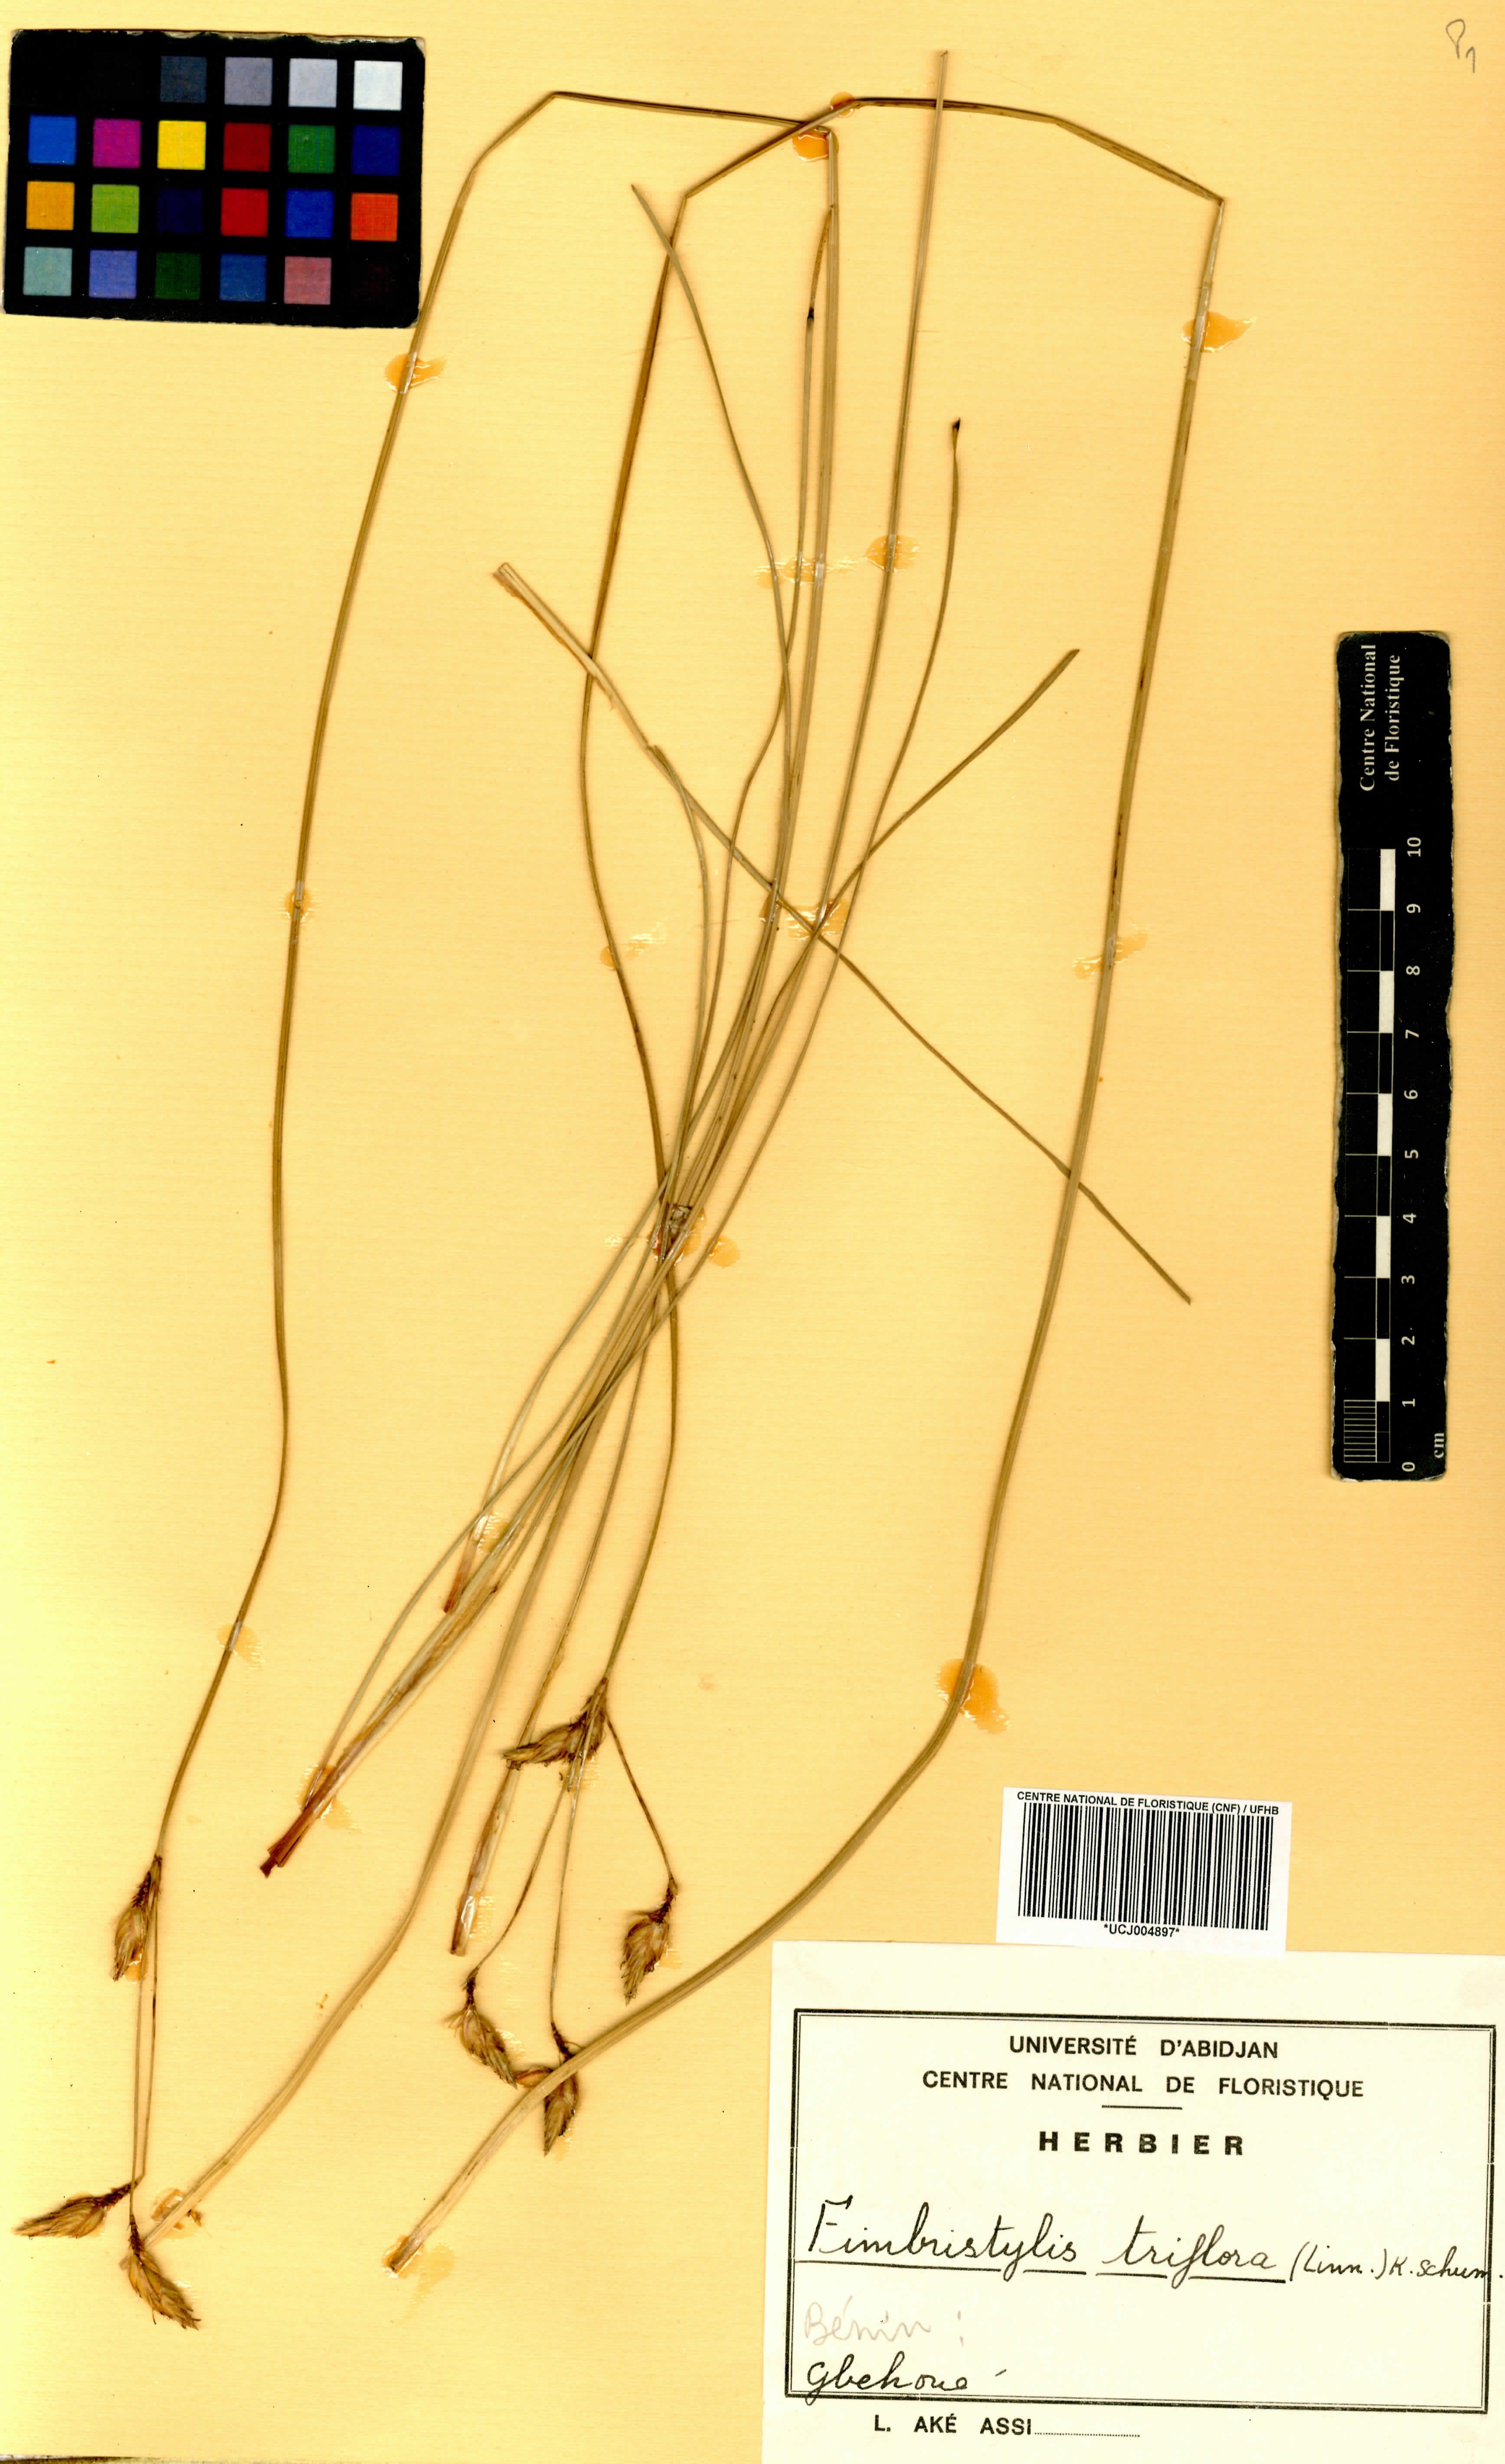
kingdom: Plantae
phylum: Tracheophyta
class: Liliopsida
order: Poales
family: Cyperaceae
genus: Abildgaardia
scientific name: Abildgaardia triflora
